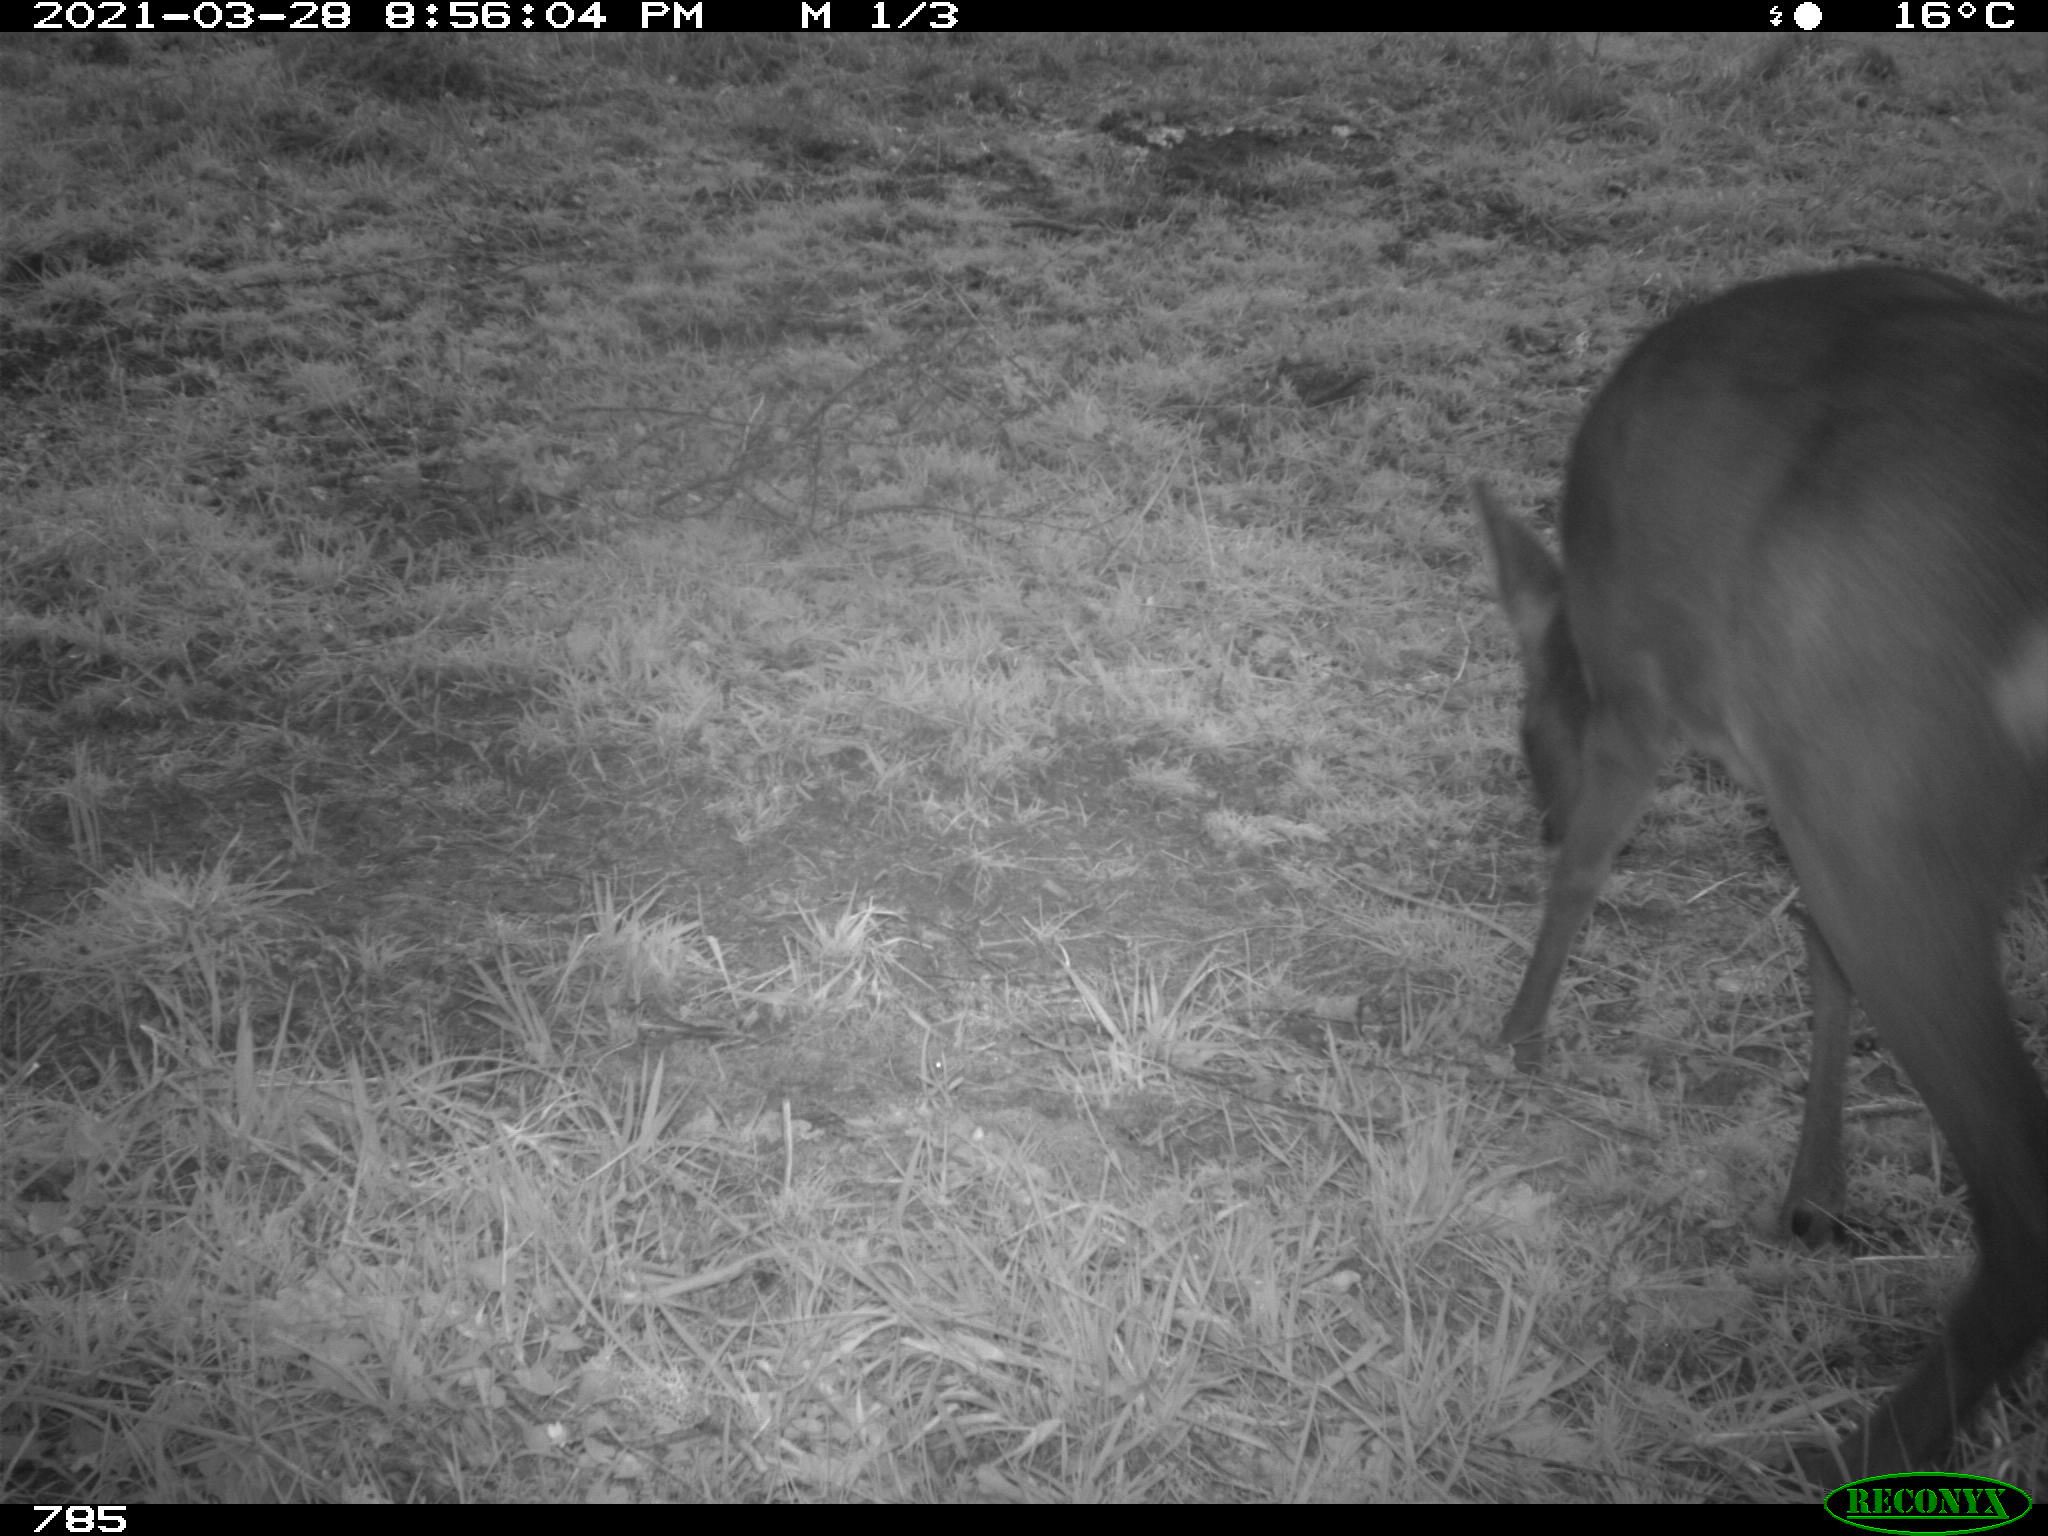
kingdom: Animalia
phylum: Chordata
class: Mammalia
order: Artiodactyla
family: Cervidae
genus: Capreolus
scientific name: Capreolus capreolus
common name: Western roe deer
